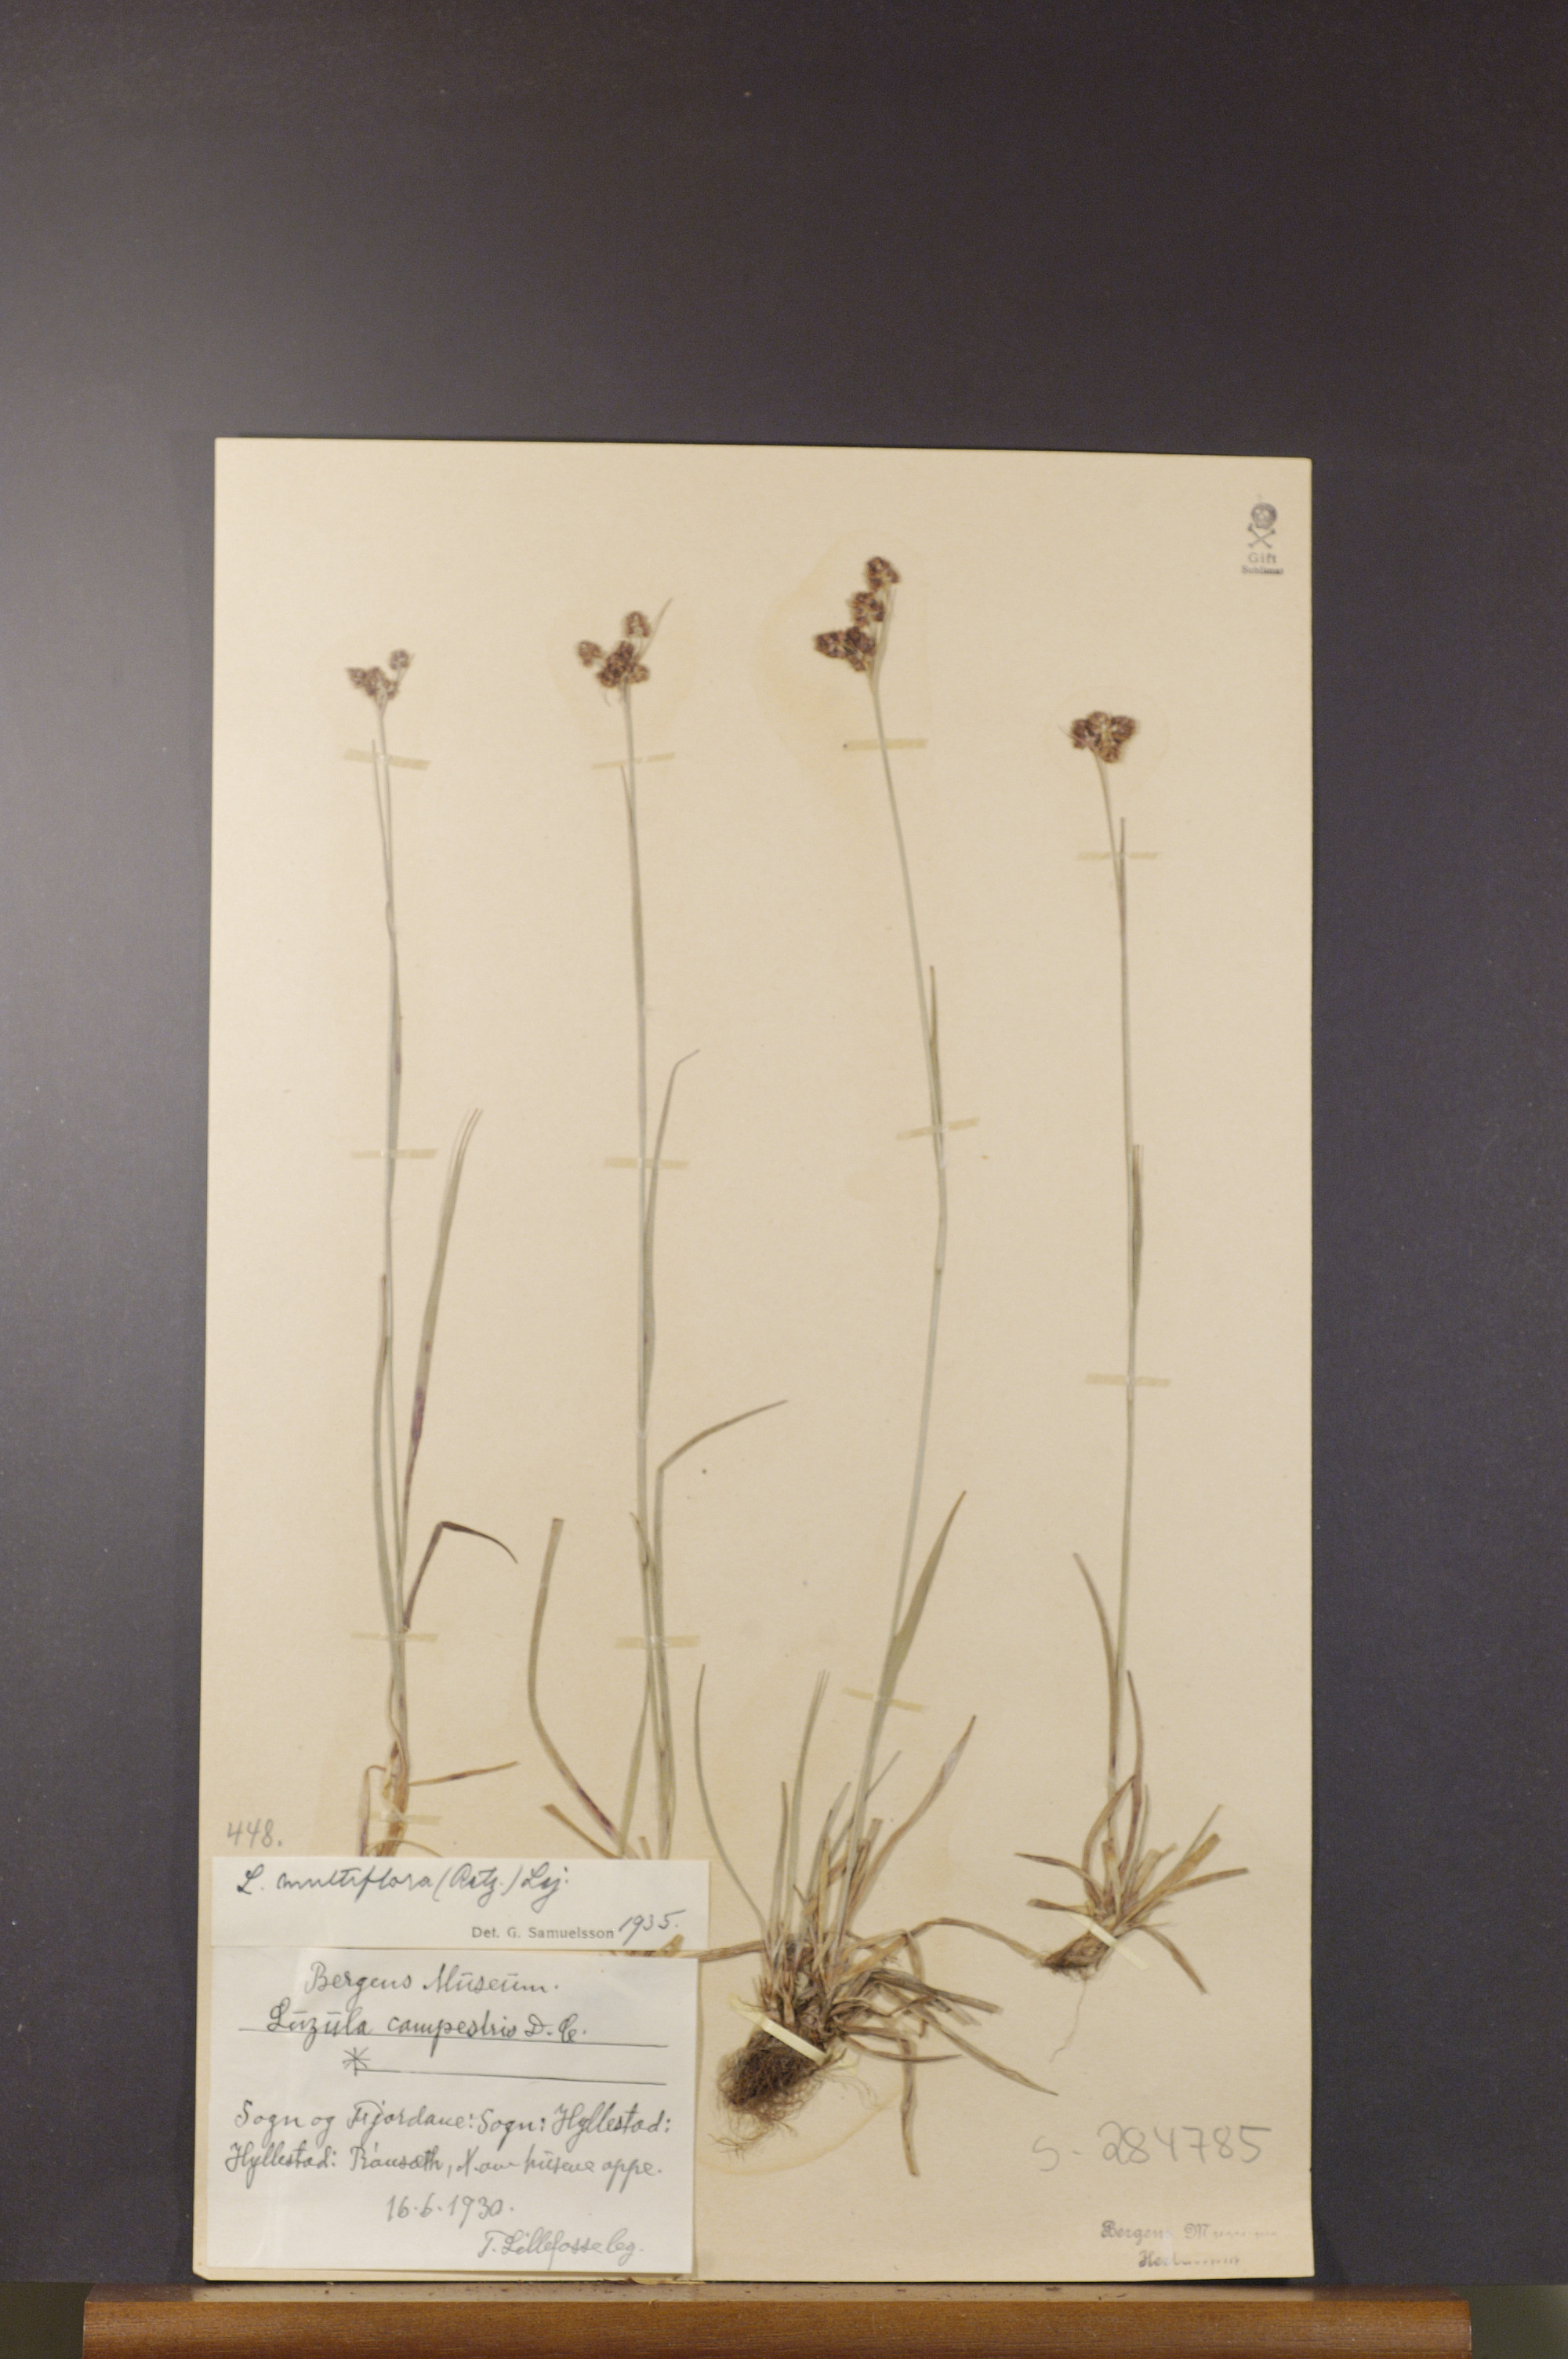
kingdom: Plantae
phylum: Tracheophyta
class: Liliopsida
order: Poales
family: Juncaceae
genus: Luzula
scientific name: Luzula multiflora
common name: Heath wood-rush
